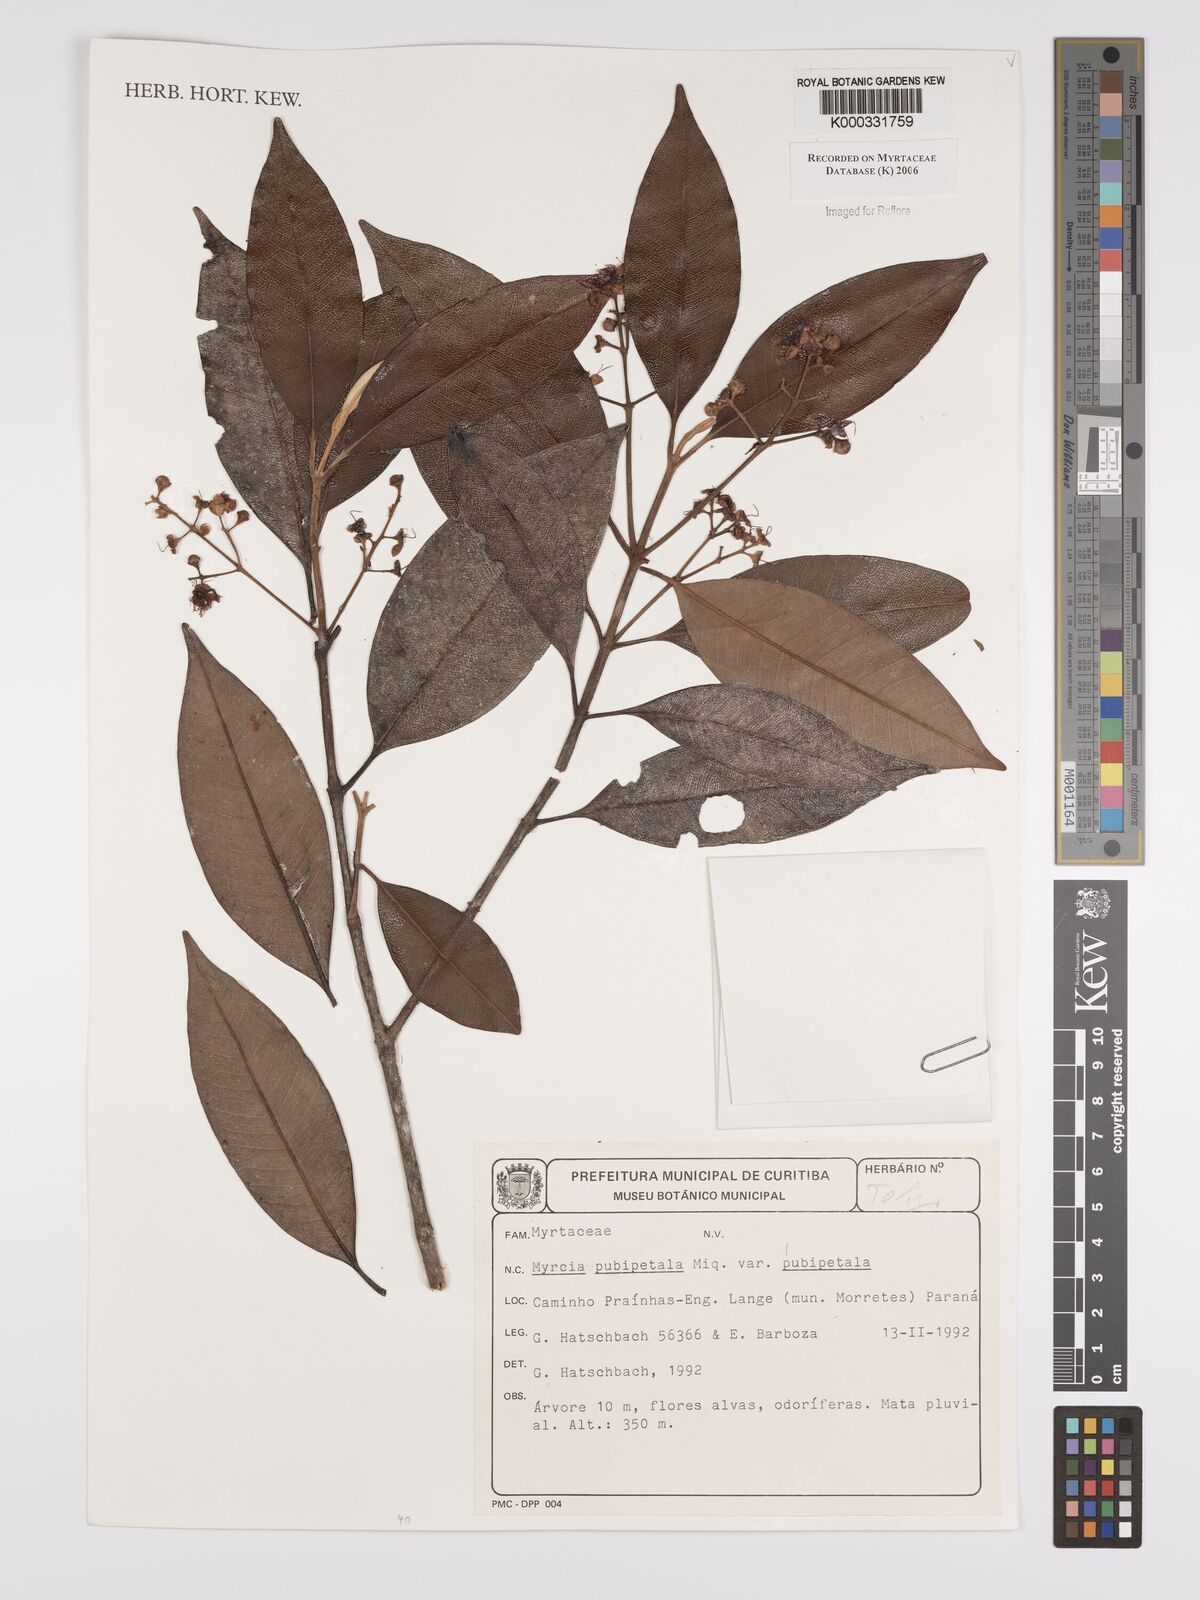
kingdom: Plantae
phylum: Tracheophyta
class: Magnoliopsida
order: Myrtales
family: Myrtaceae
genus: Myrcia
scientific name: Myrcia pubipetala
